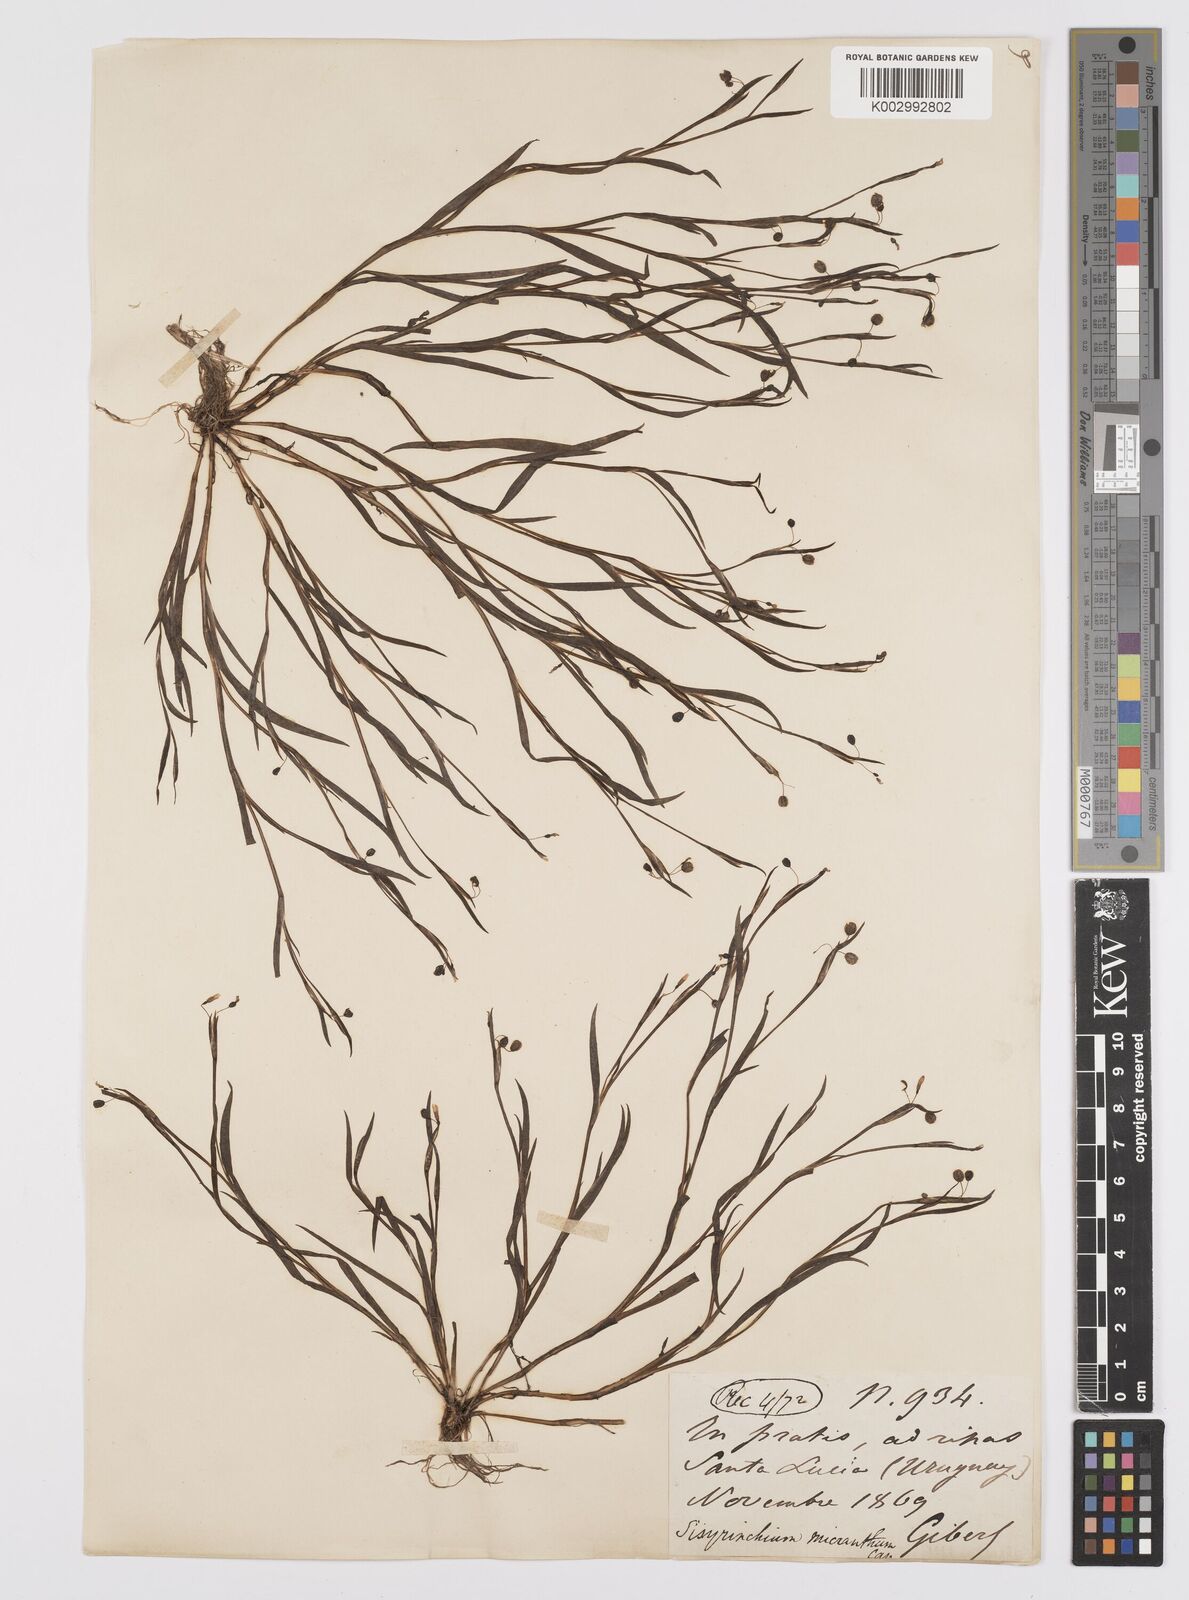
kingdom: Plantae
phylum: Tracheophyta
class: Liliopsida
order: Asparagales
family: Iridaceae
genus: Sisyrinchium
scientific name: Sisyrinchium micranthum
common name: Bermuda pigroot
